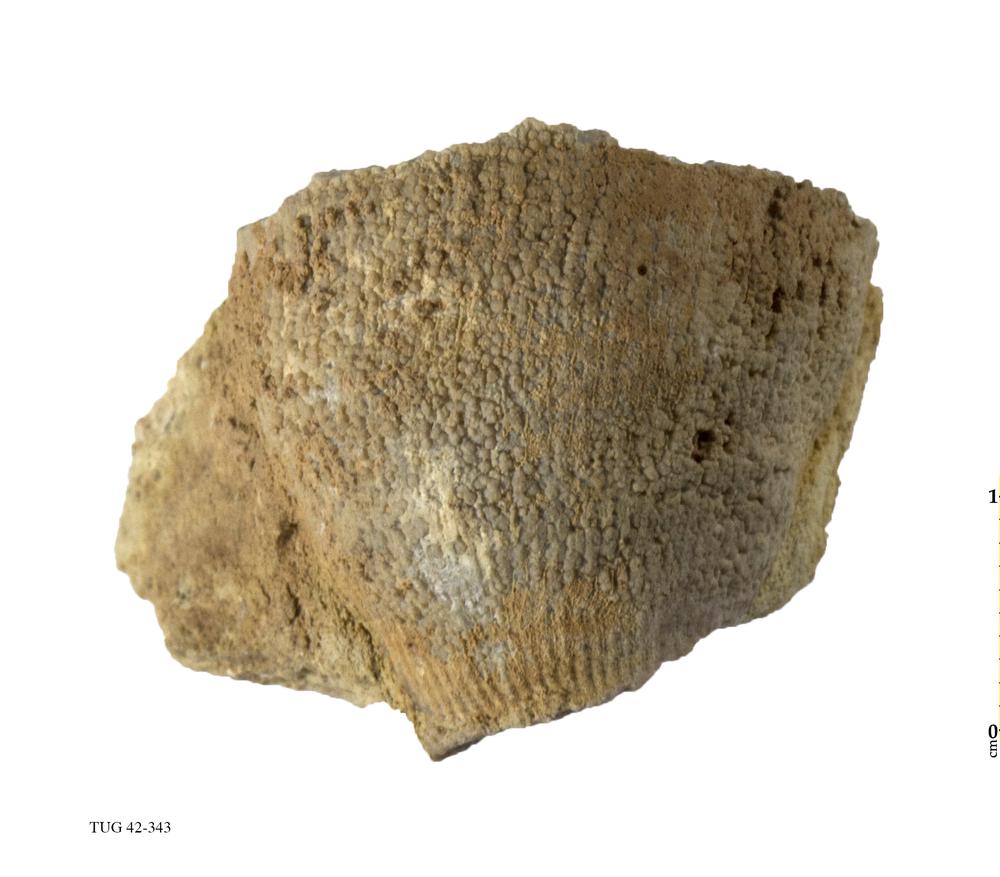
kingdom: Animalia
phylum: Cnidaria
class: Anthozoa
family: Streptelasmatidae
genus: Streptelasma
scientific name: Streptelasma corniculum
